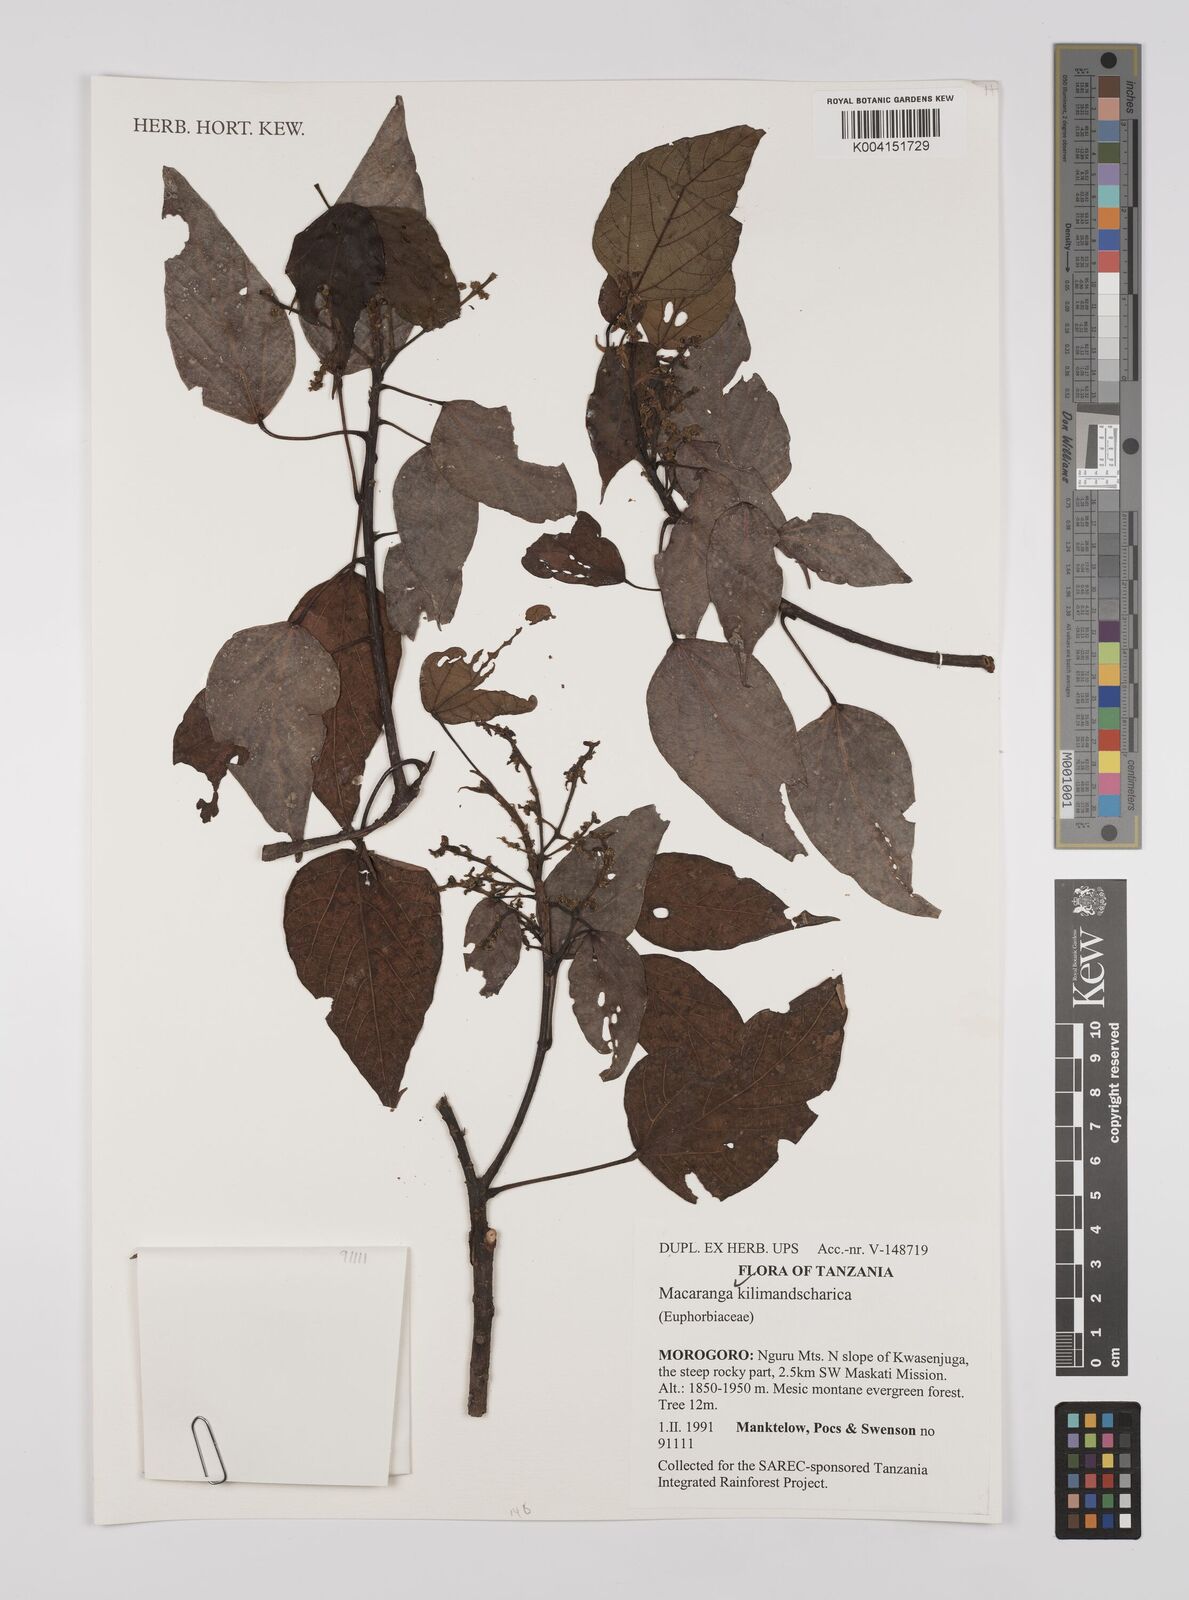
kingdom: Plantae
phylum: Tracheophyta
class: Magnoliopsida
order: Malpighiales
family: Euphorbiaceae
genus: Macaranga
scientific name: Macaranga kilimandscharica
